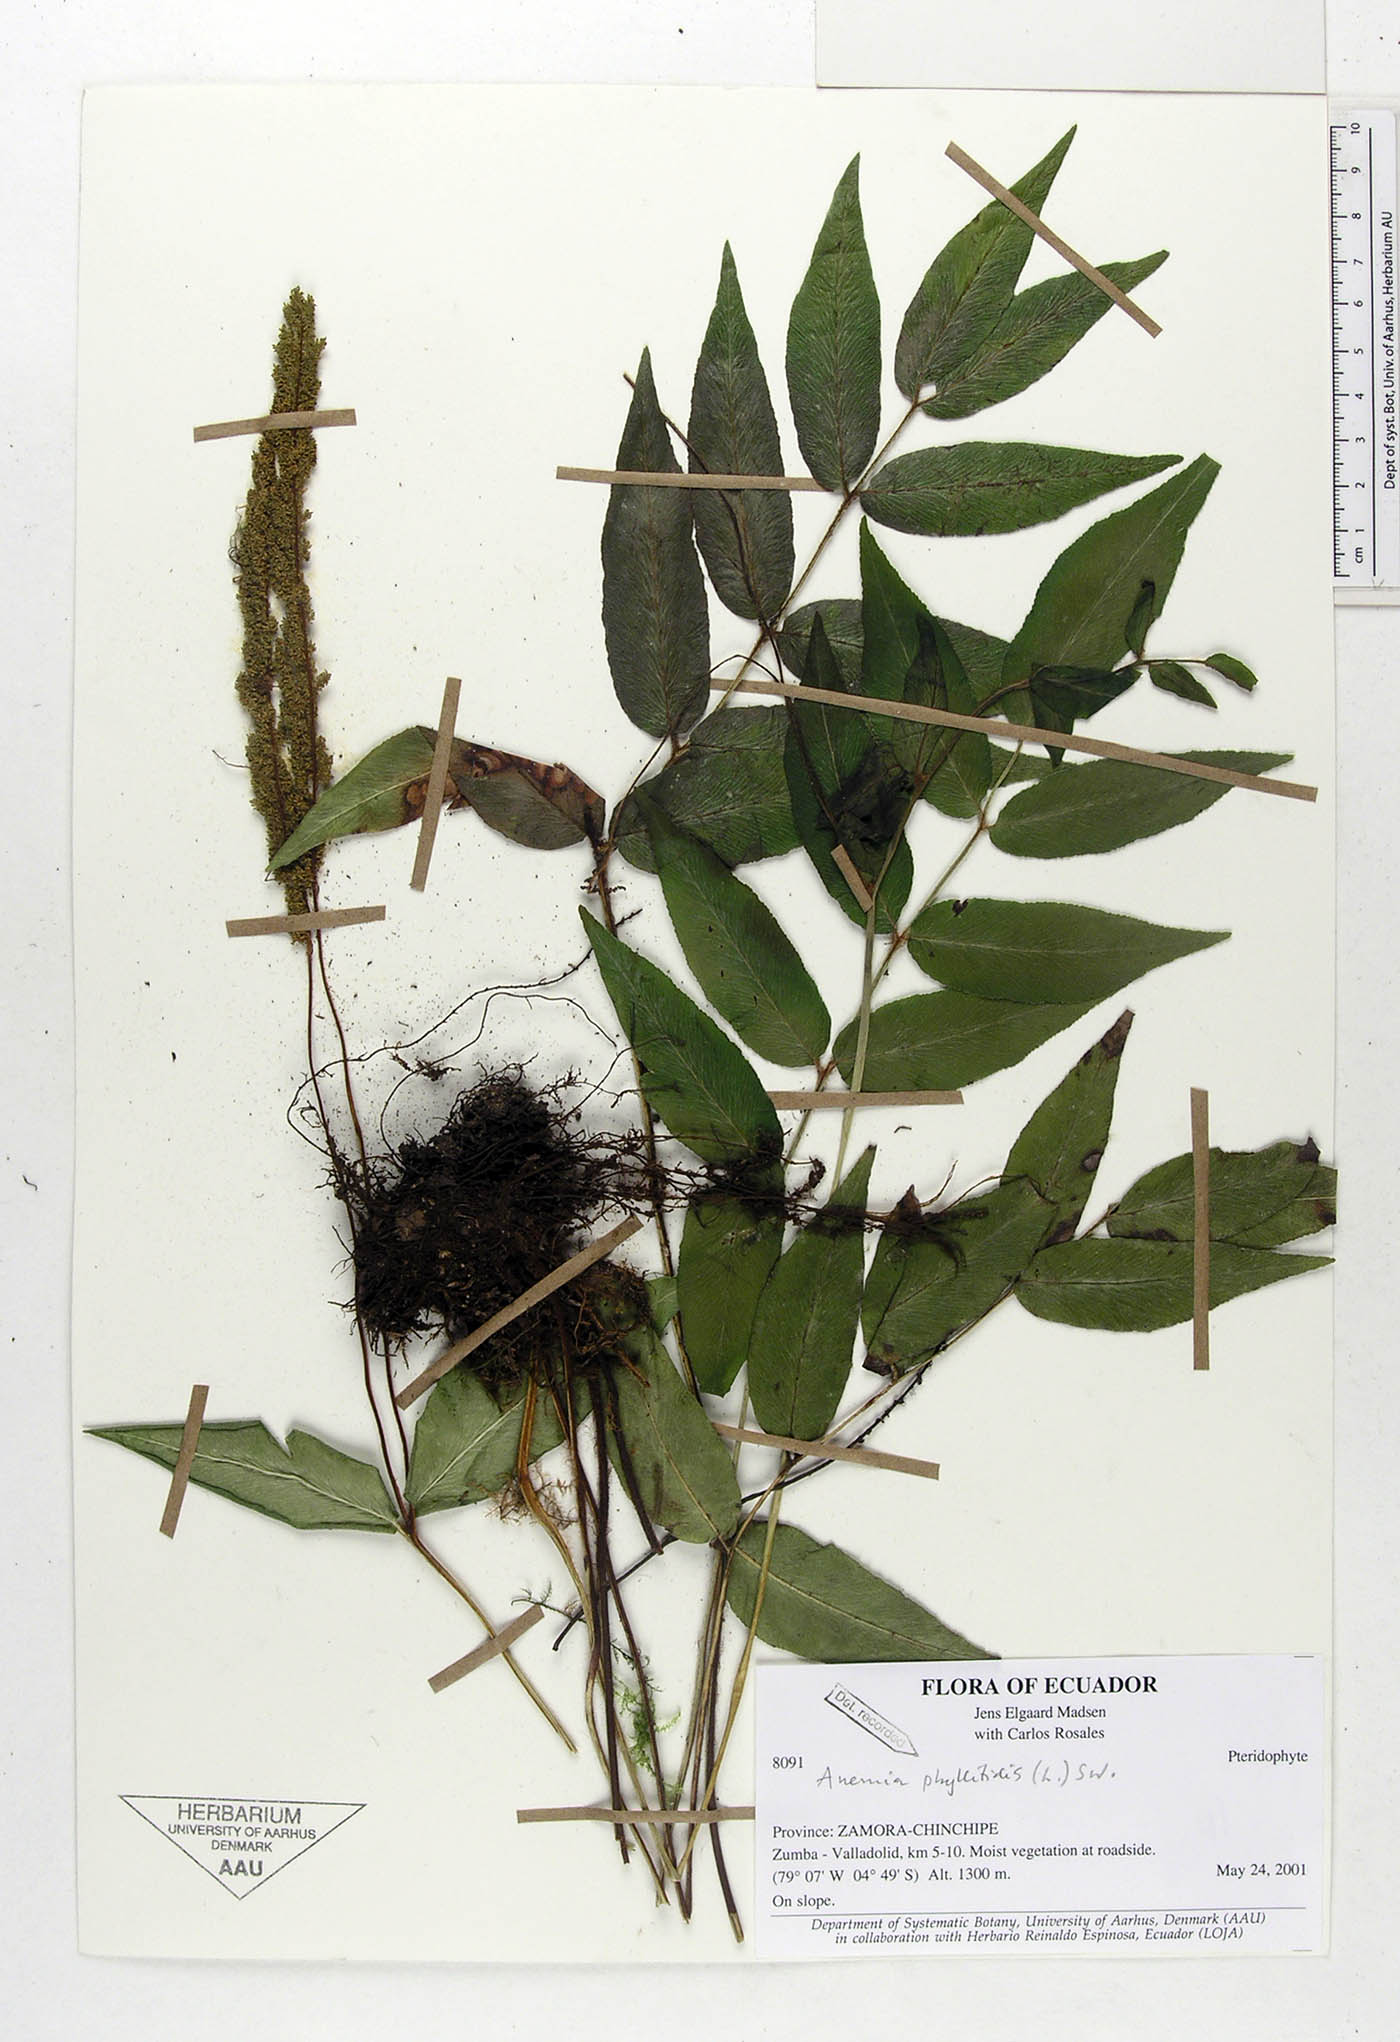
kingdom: Plantae
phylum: Tracheophyta
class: Polypodiopsida
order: Schizaeales
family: Anemiaceae
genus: Anemia
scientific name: Anemia phyllitidis
